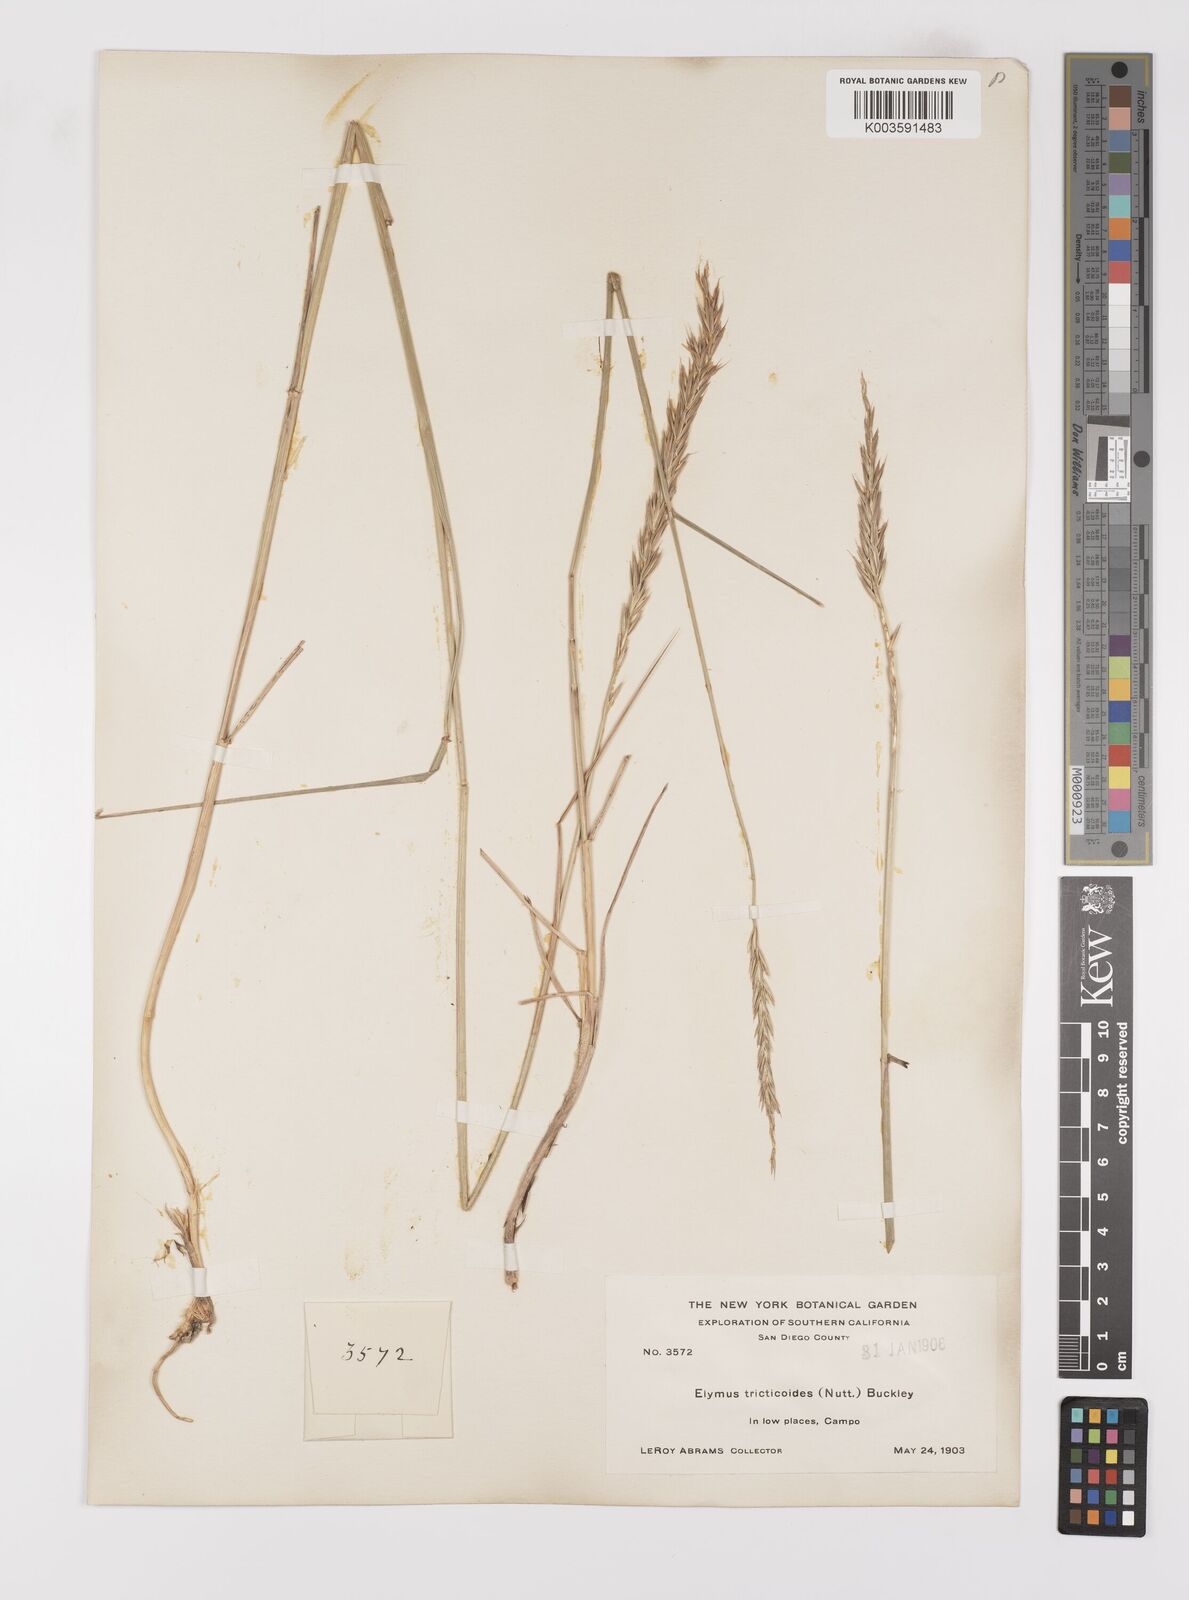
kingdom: Plantae
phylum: Tracheophyta
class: Liliopsida
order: Poales
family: Poaceae
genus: Leymus
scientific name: Leymus triticoides
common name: Beardless wild rye
